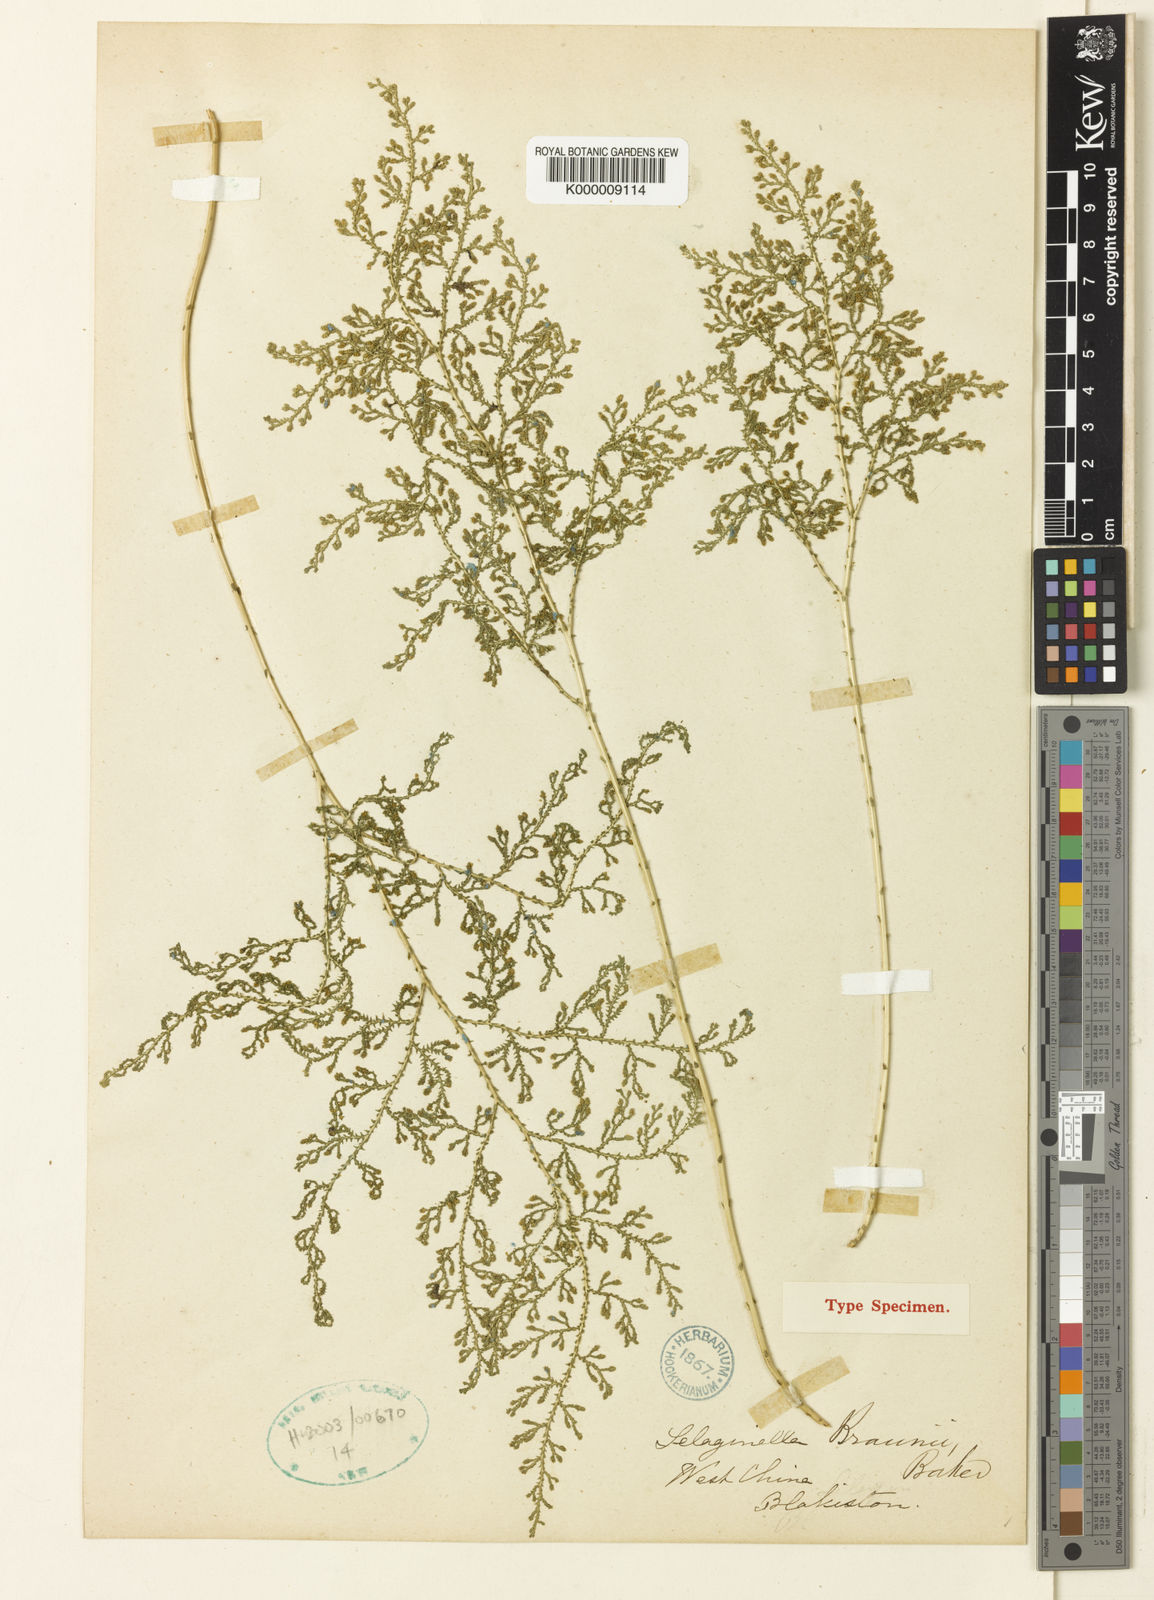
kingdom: Plantae
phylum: Tracheophyta
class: Lycopodiopsida
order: Selaginellales
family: Selaginellaceae
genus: Selaginella
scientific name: Selaginella braunii
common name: Braun's spikemoss
